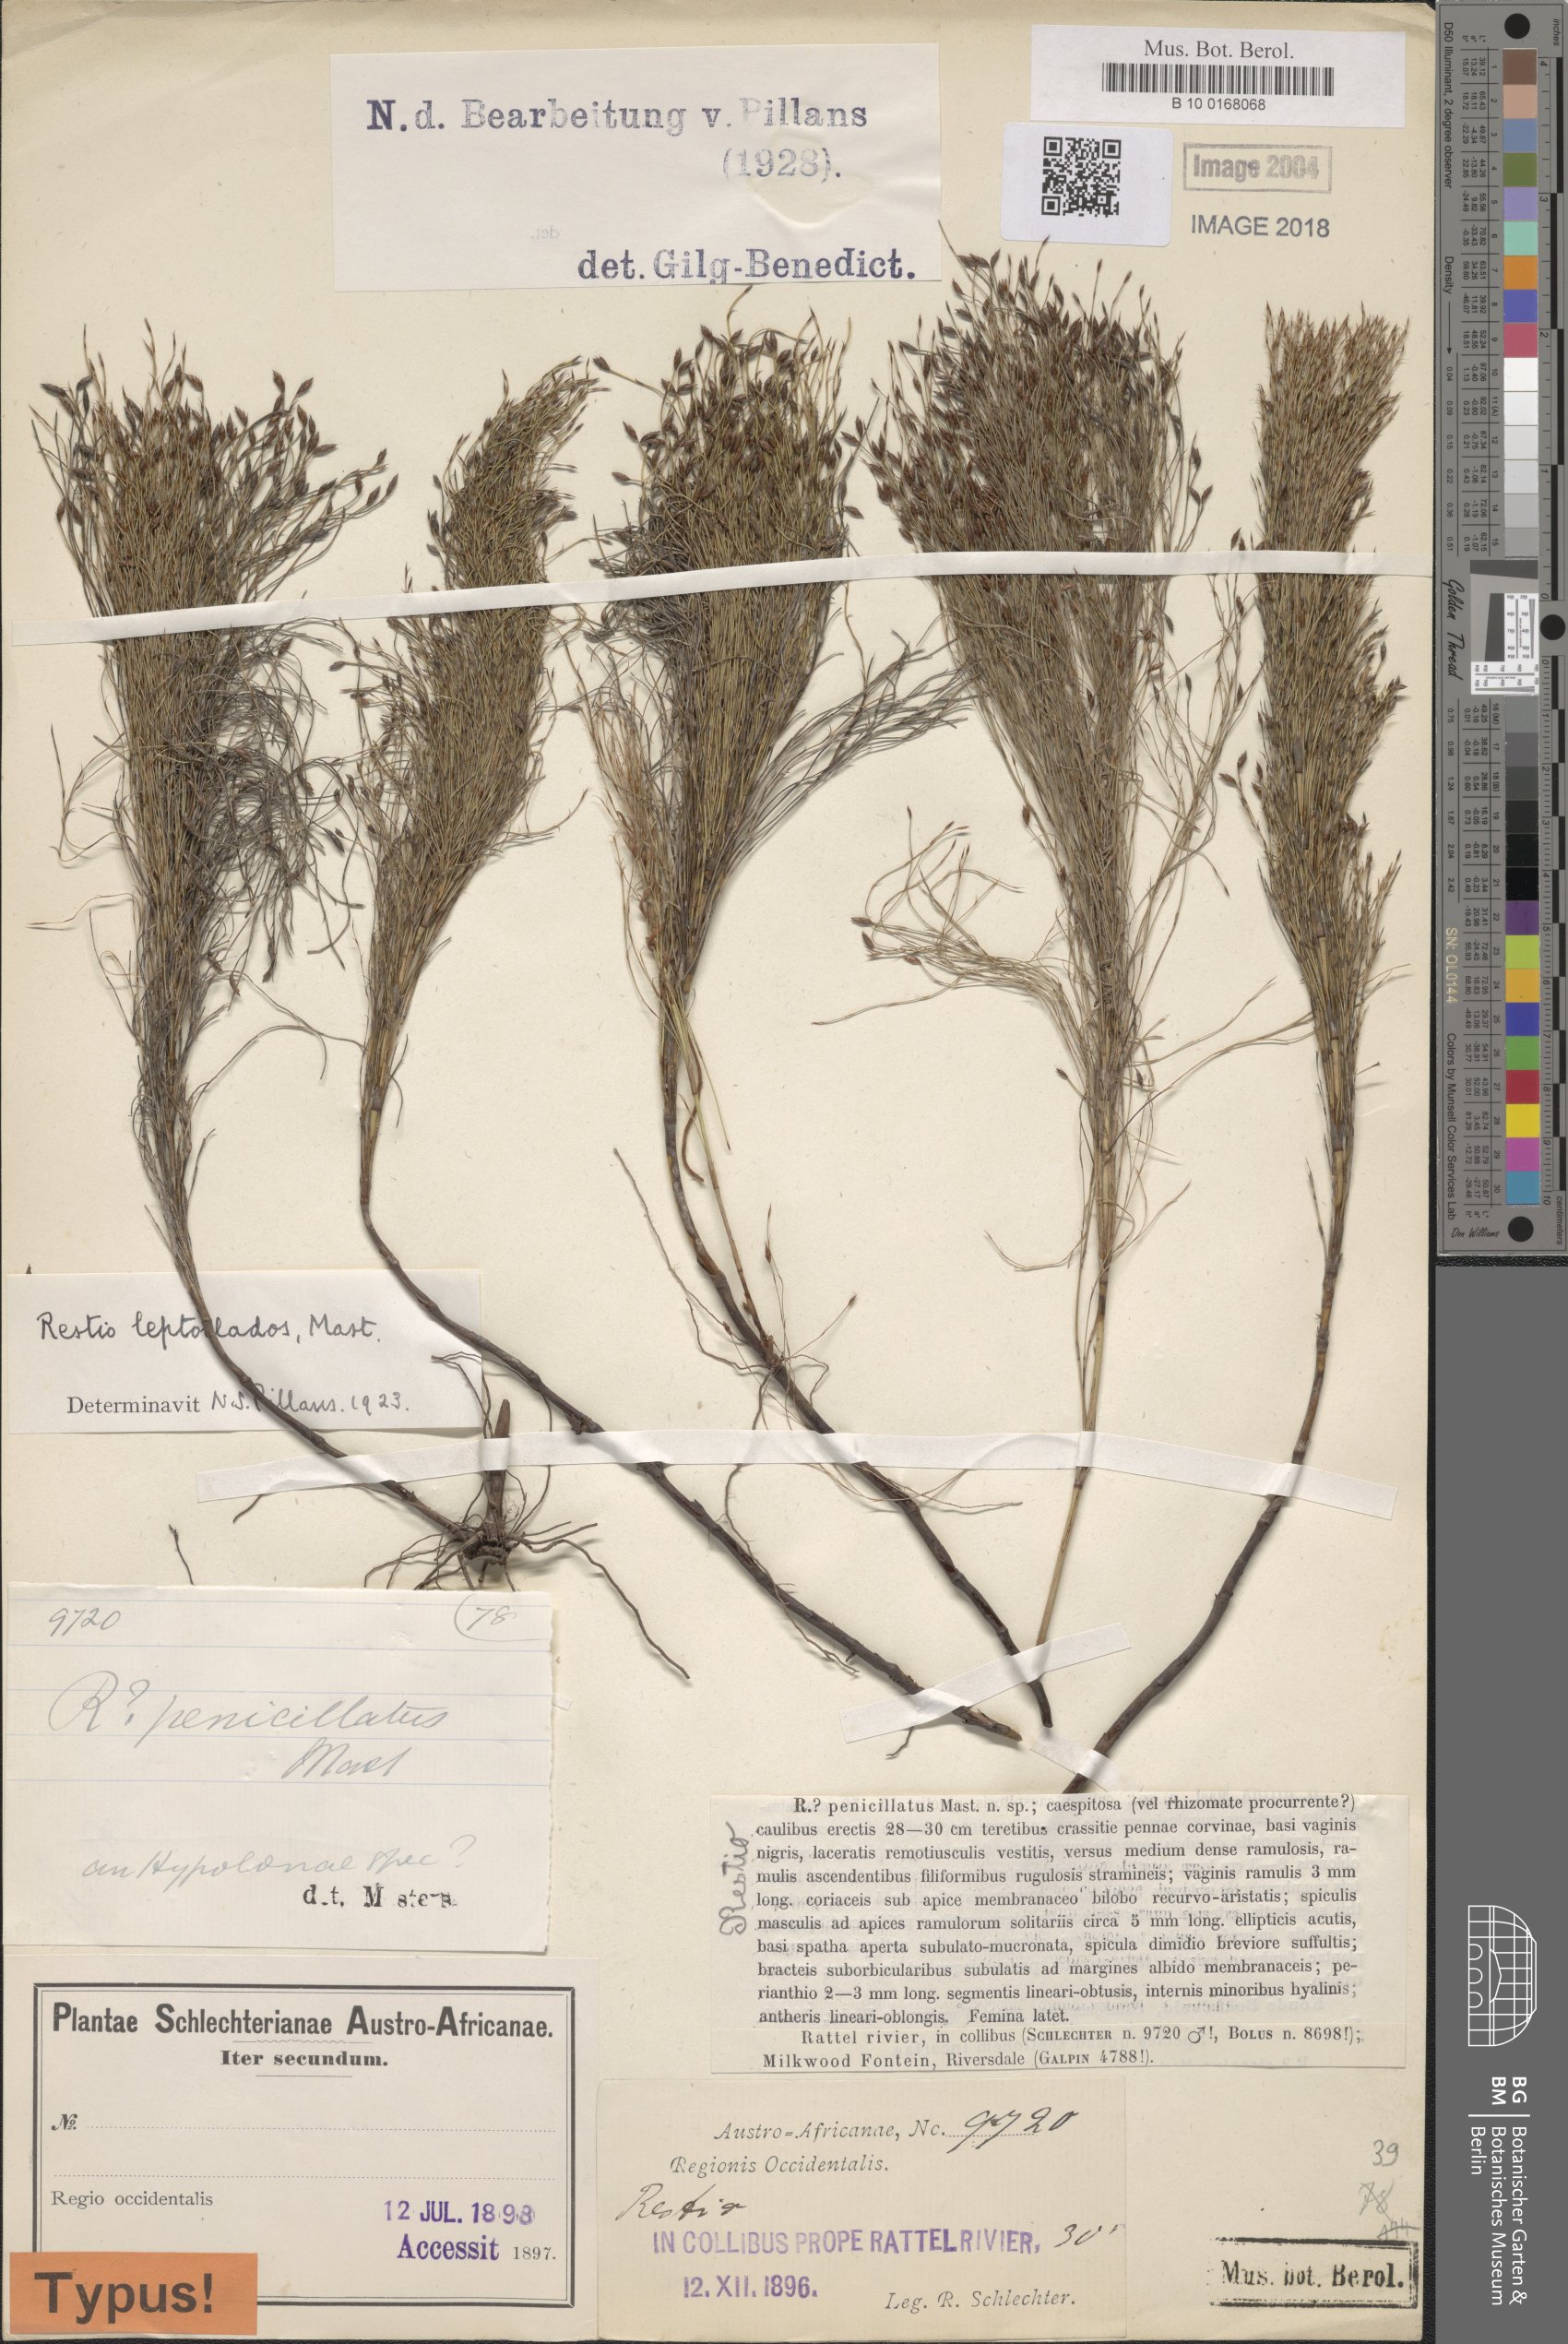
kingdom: Plantae
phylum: Tracheophyta
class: Liliopsida
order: Poales
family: Restionaceae
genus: Restio
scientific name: Restio leptoclados
